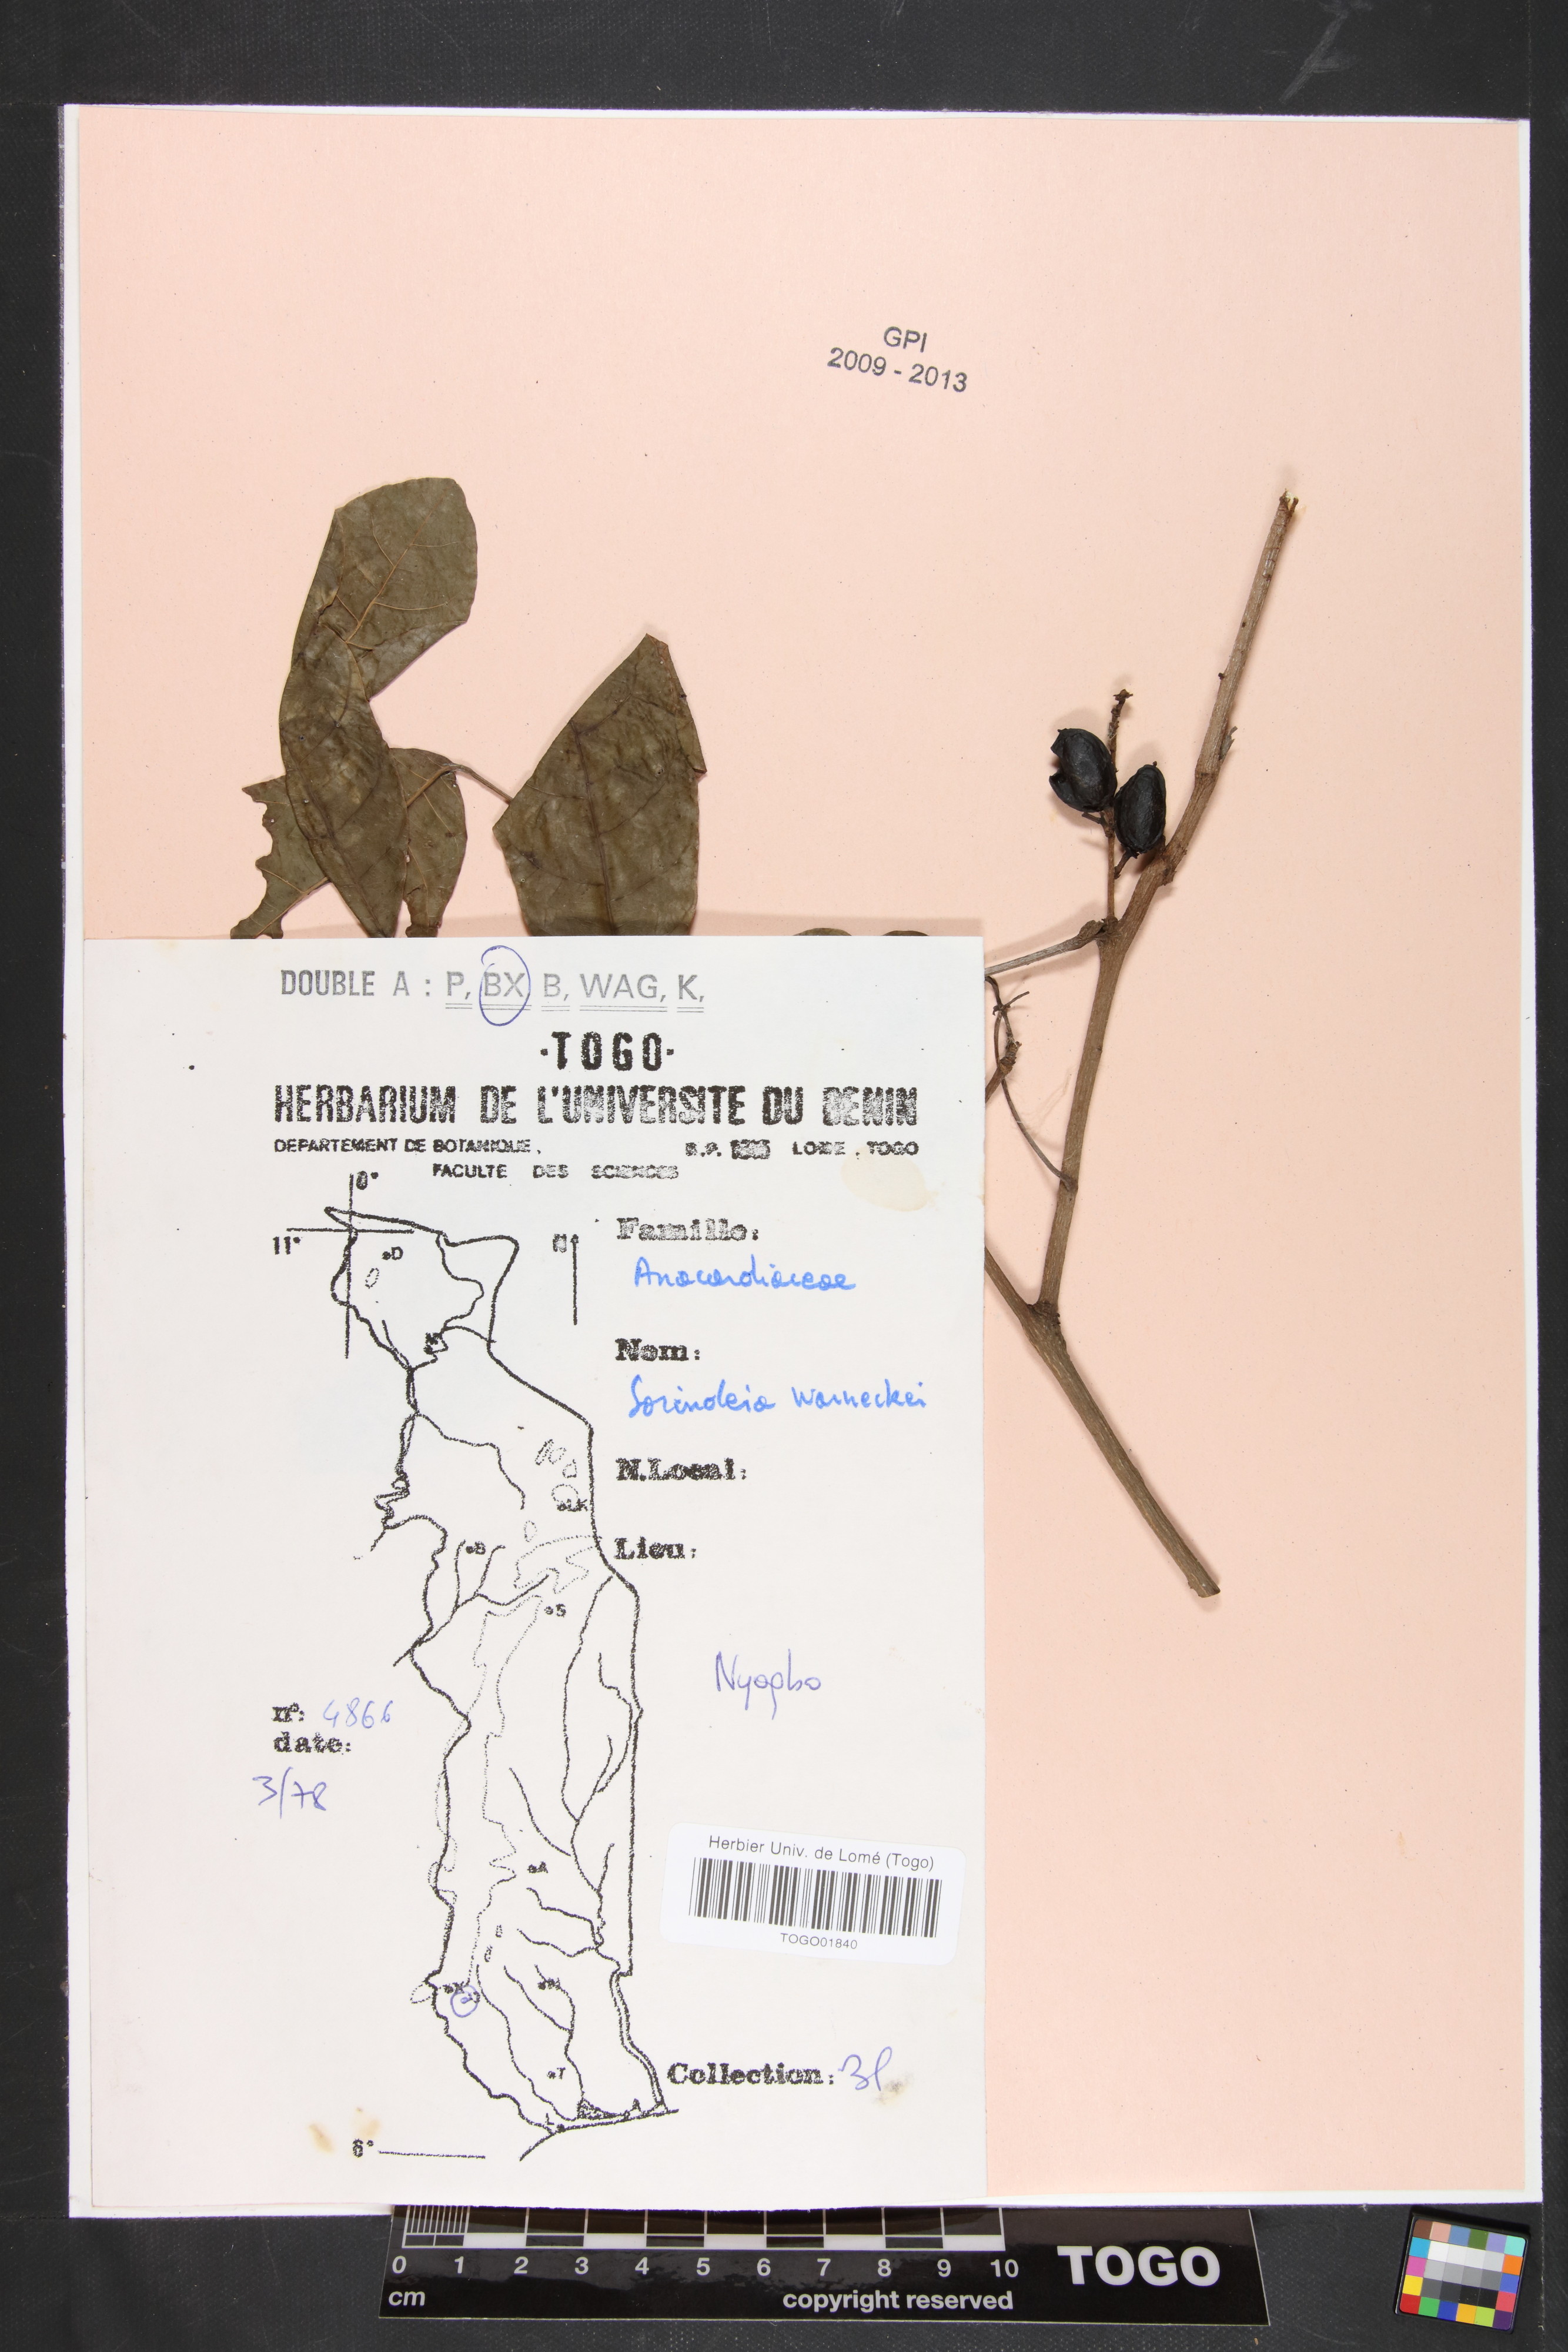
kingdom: Plantae
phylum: Tracheophyta
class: Magnoliopsida
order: Sapindales
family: Anacardiaceae
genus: Sorindeia
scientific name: Sorindeia grandifolia
